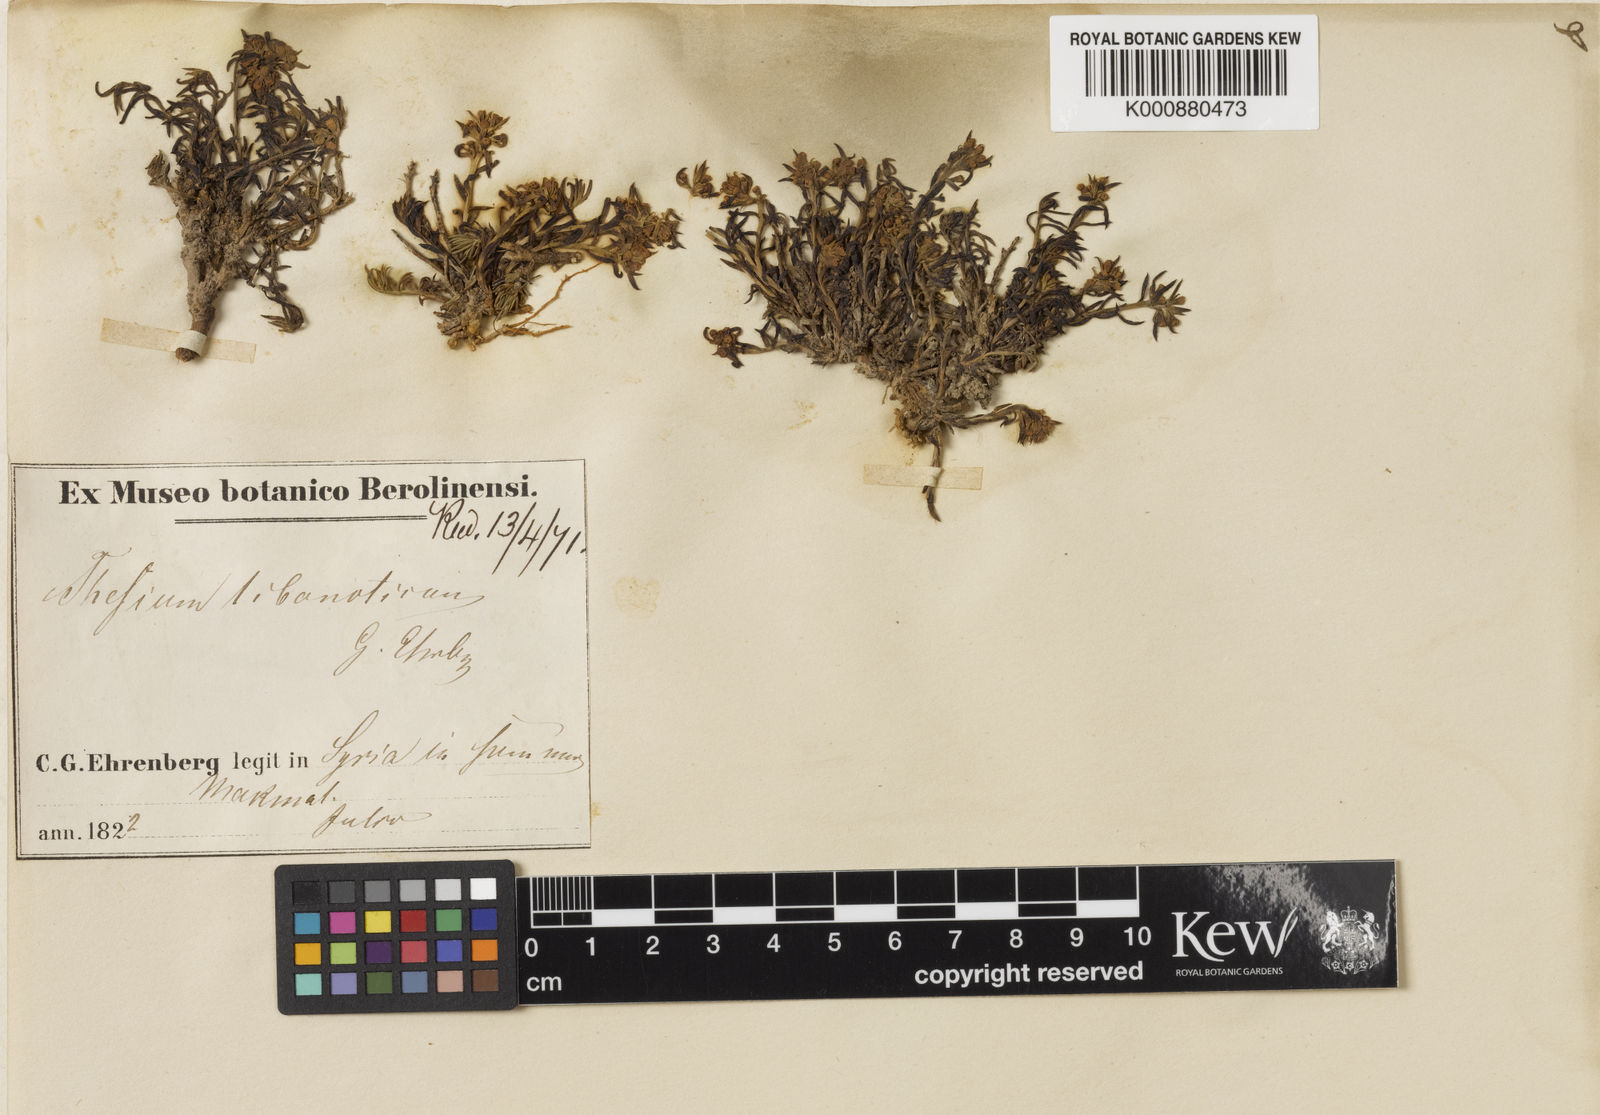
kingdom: Plantae
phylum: Tracheophyta
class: Magnoliopsida
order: Santalales
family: Thesiaceae
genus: Thesium
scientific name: Thesium
